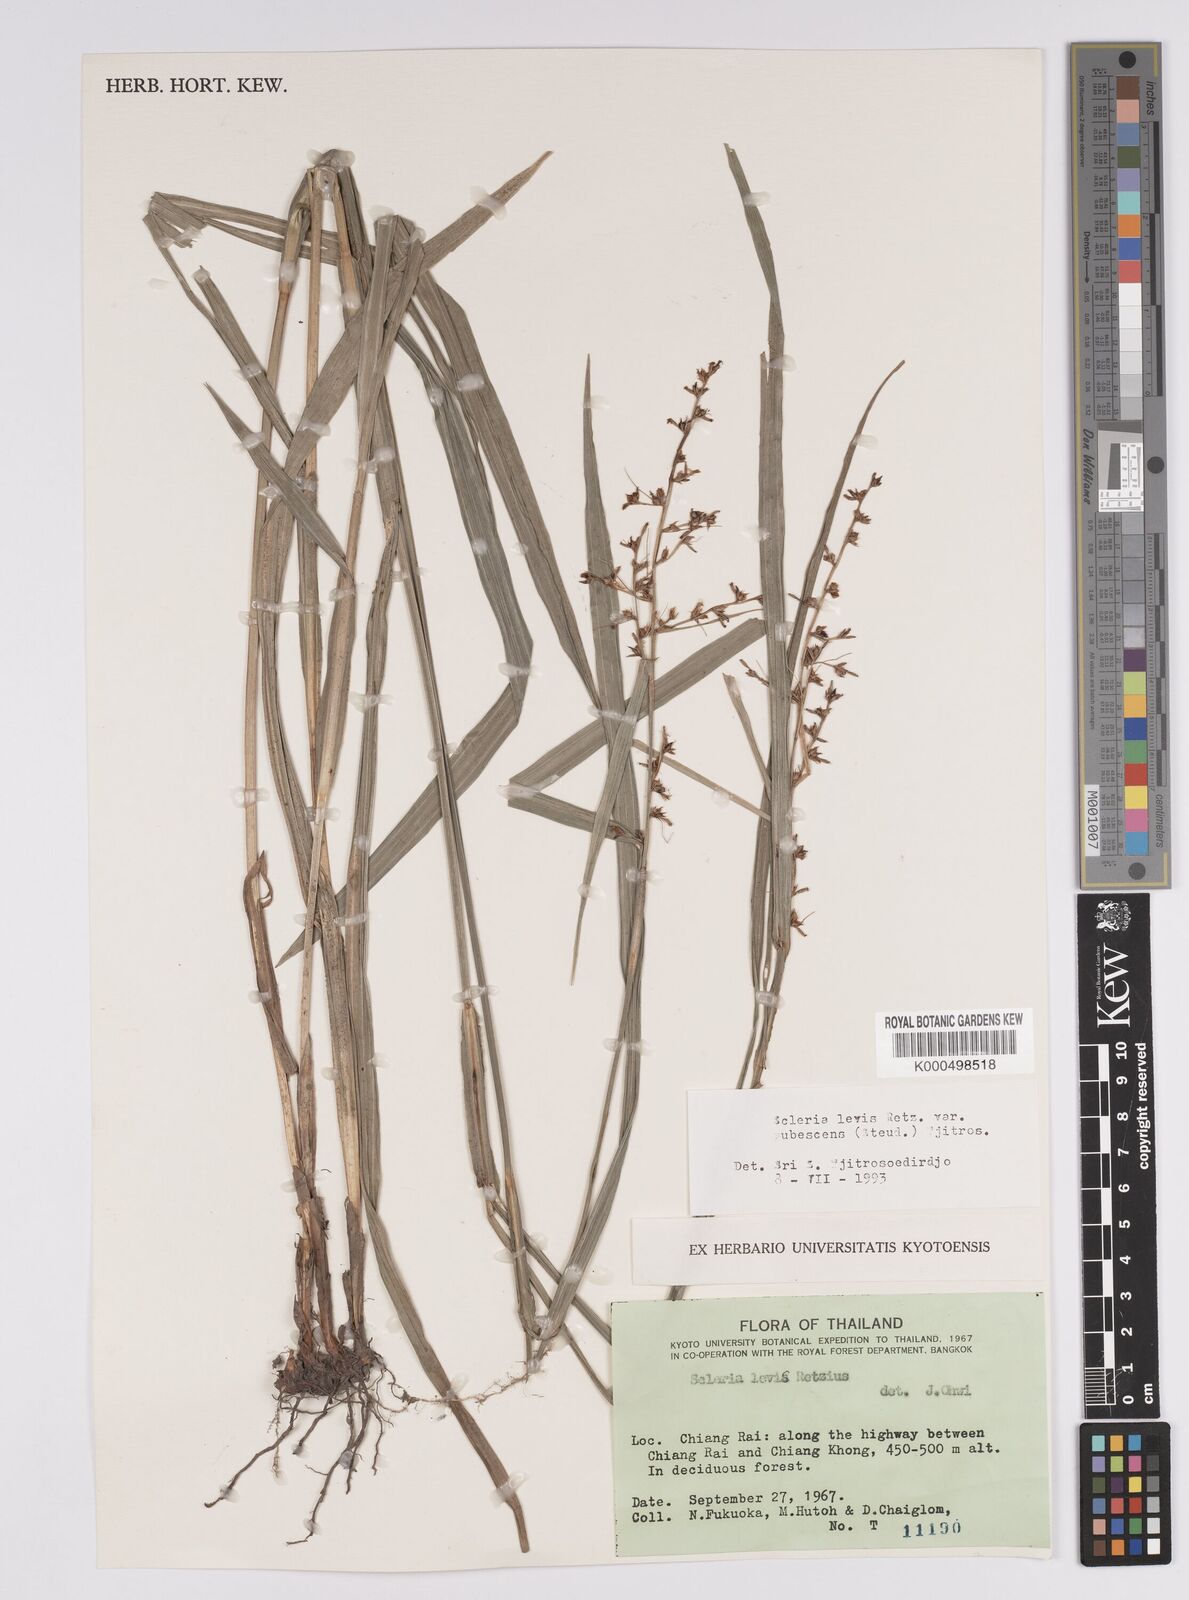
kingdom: Plantae
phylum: Tracheophyta
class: Liliopsida
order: Poales
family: Cyperaceae
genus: Scleria
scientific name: Scleria levis
